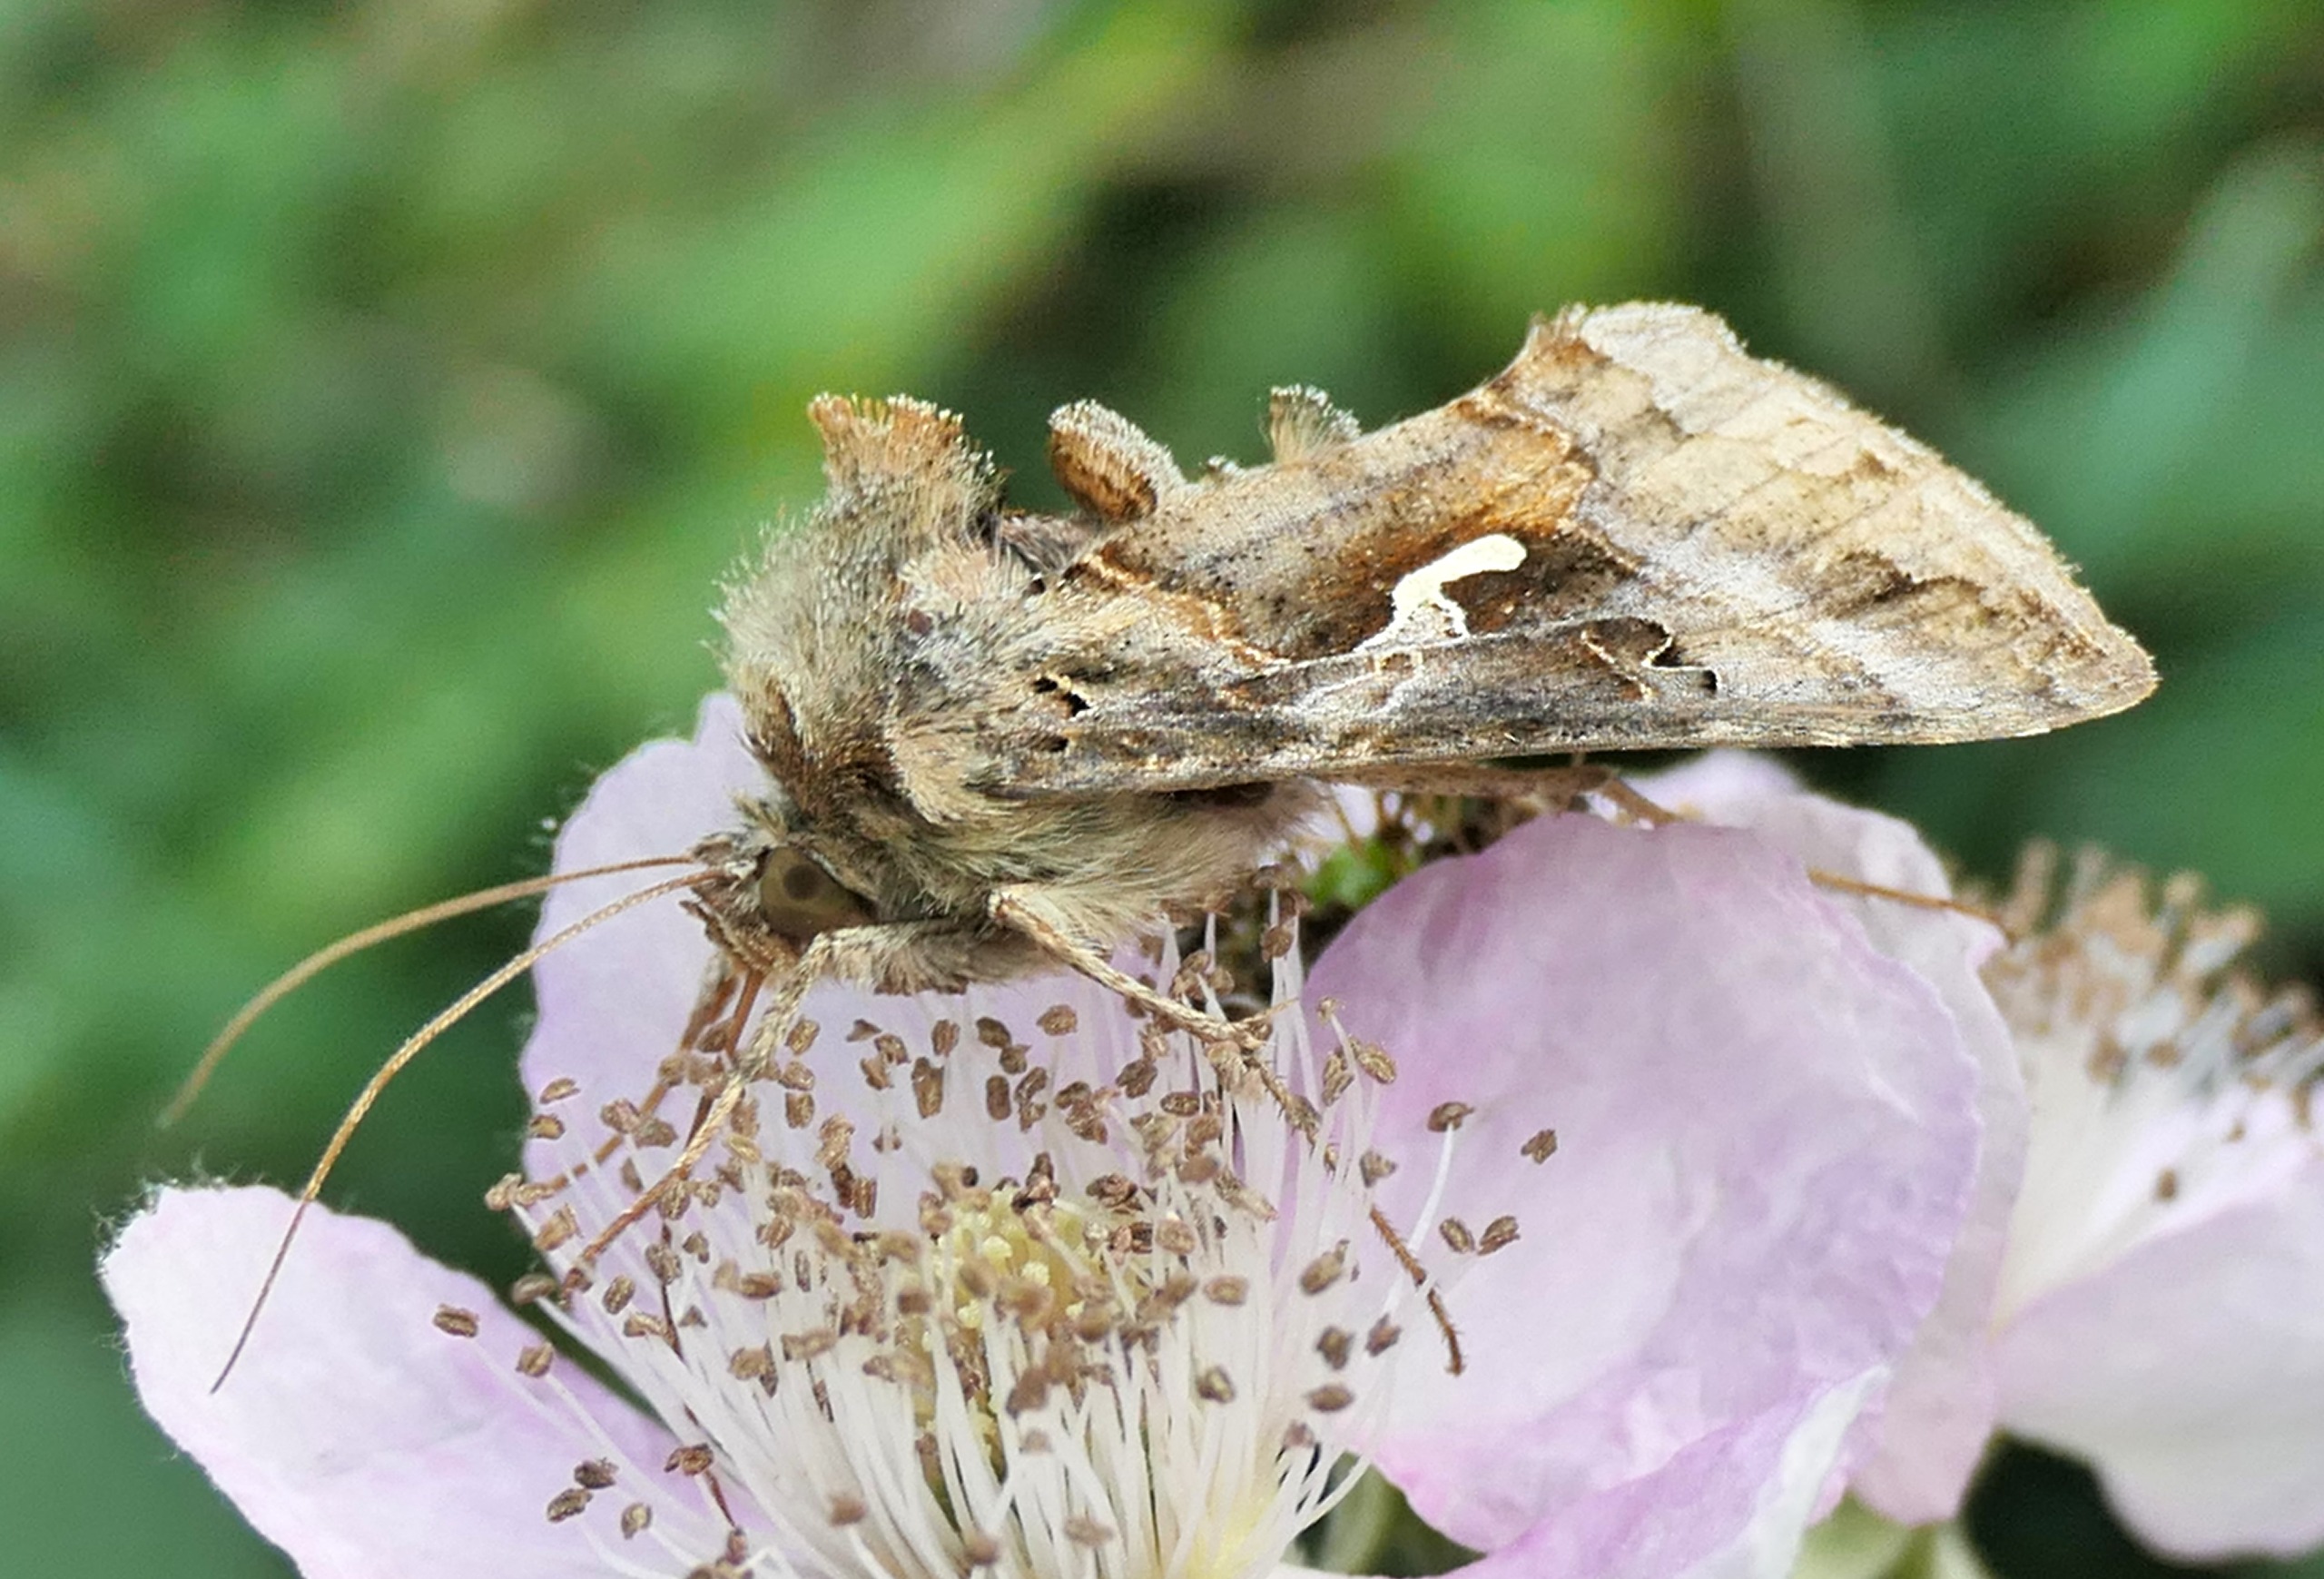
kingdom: Animalia
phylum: Arthropoda
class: Insecta
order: Lepidoptera
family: Noctuidae
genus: Autographa
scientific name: Autographa gamma
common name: Gammaugle
